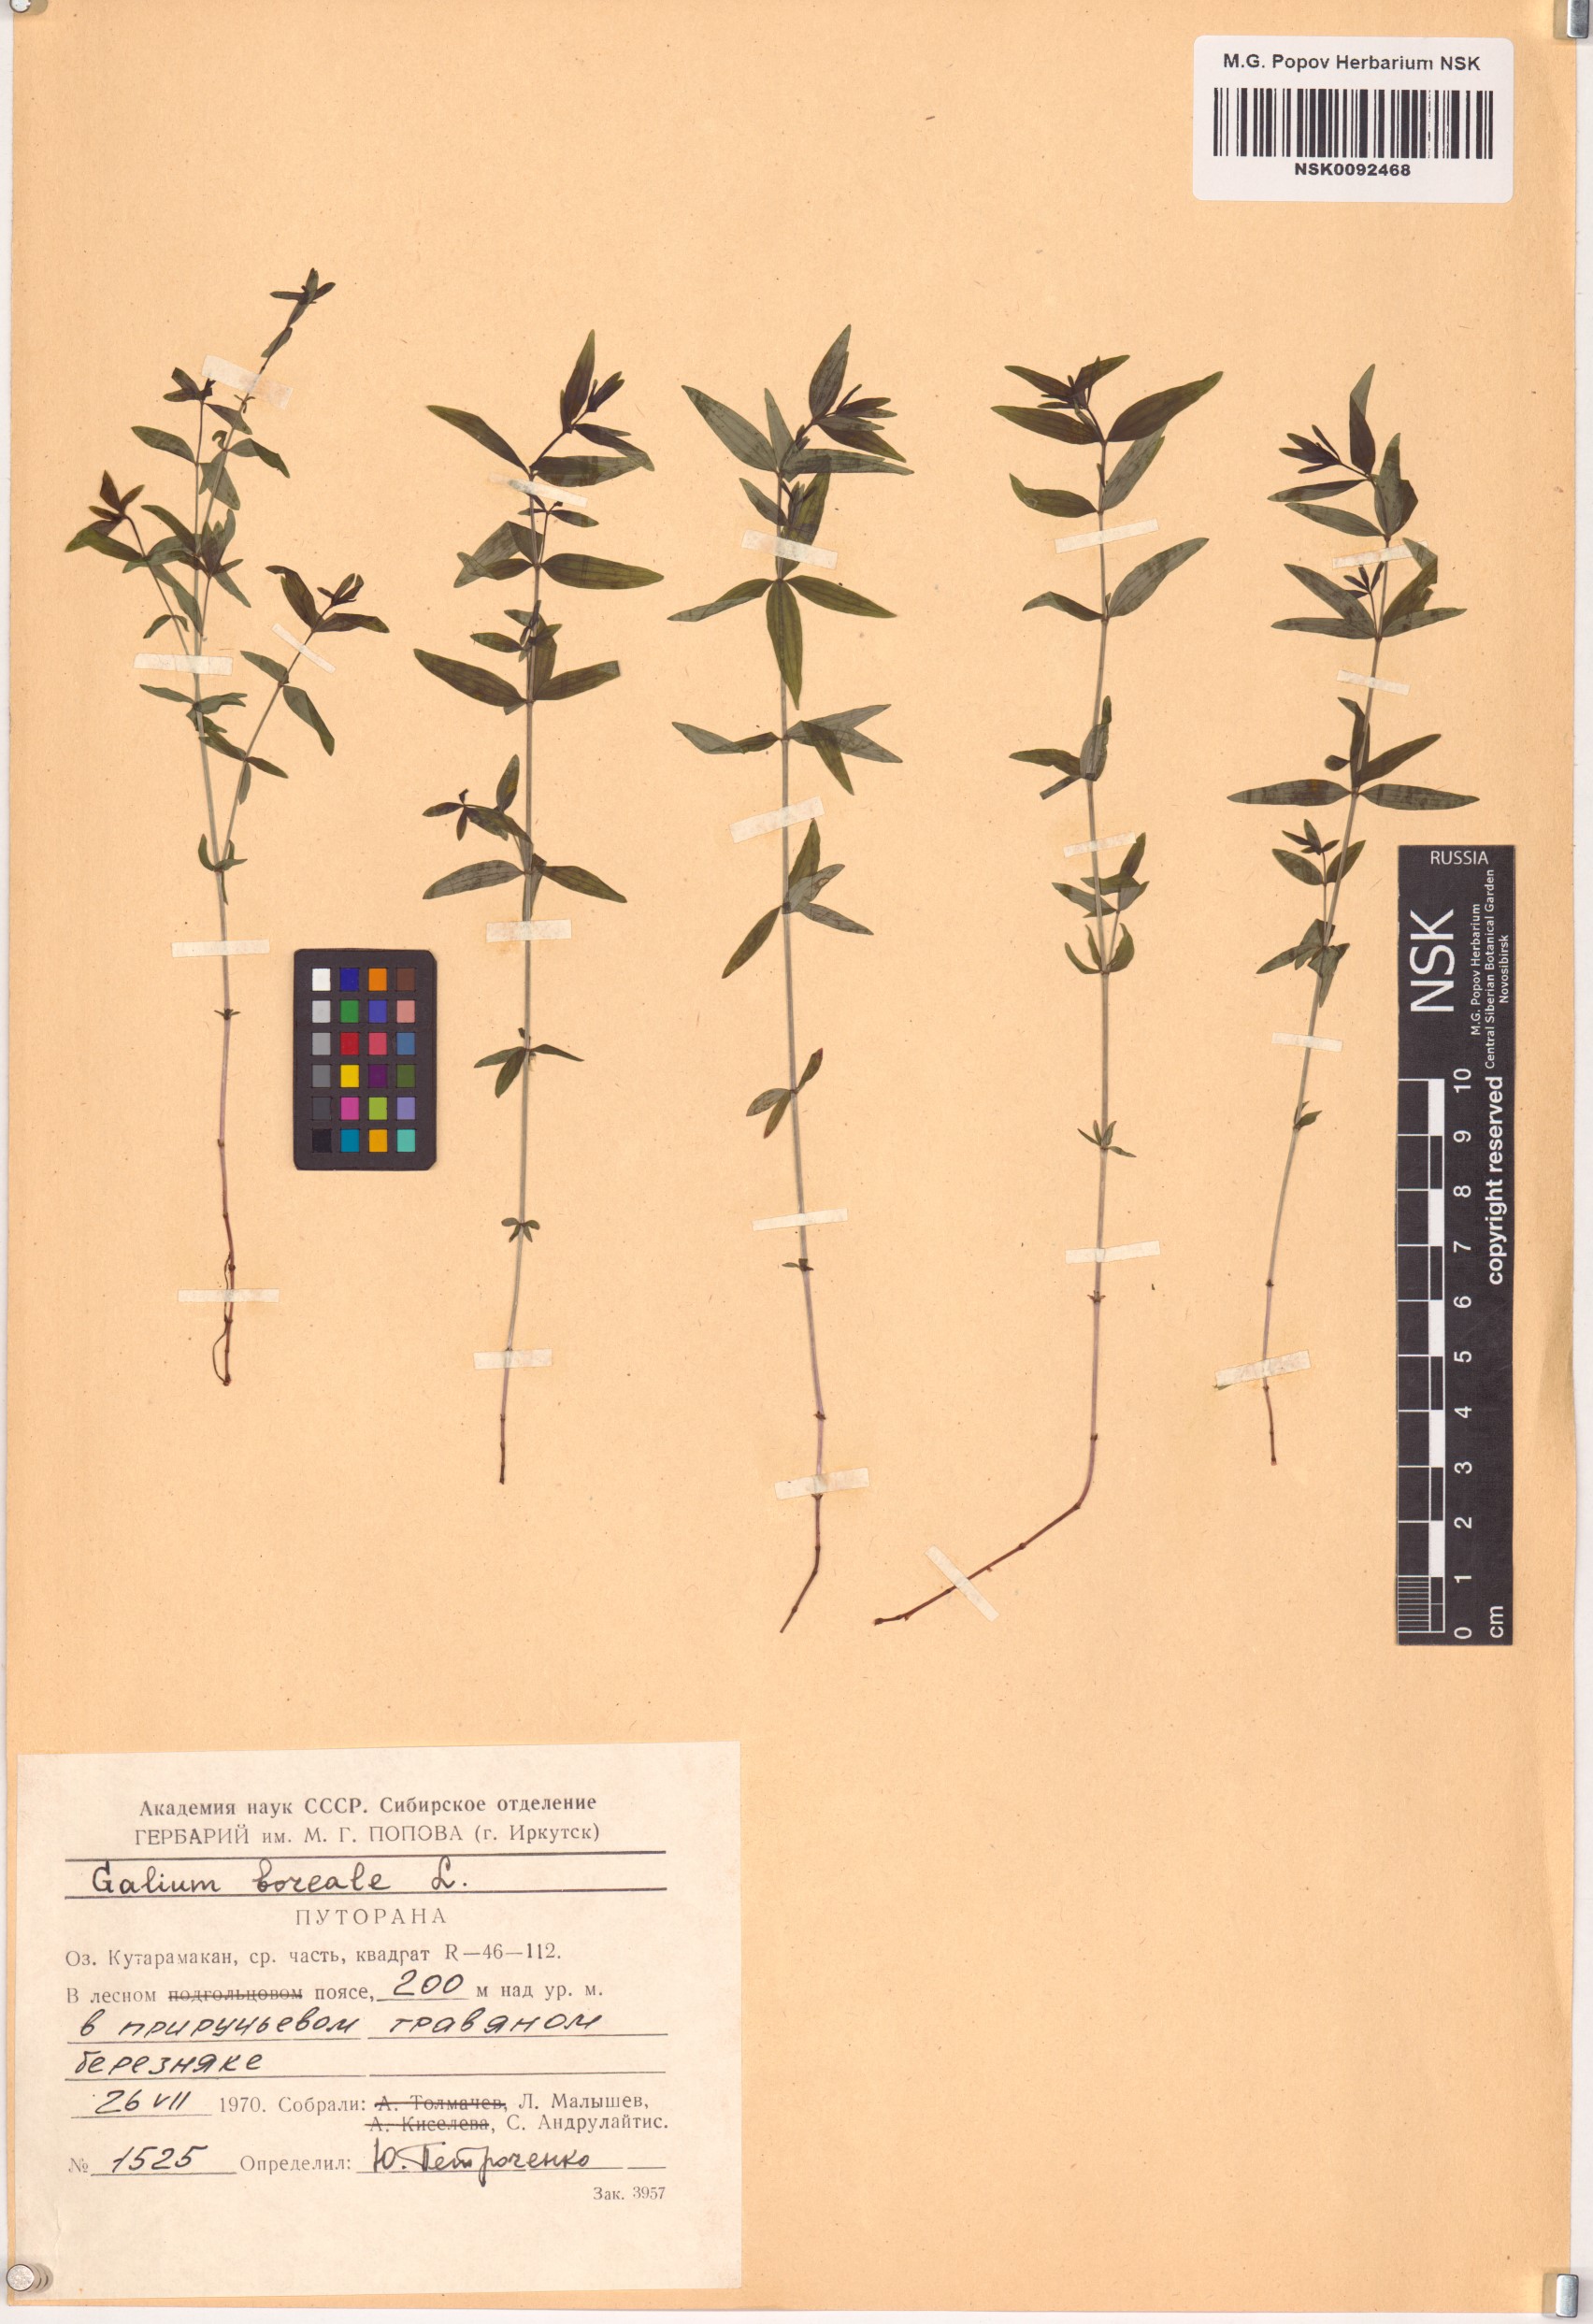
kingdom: Plantae
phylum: Tracheophyta
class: Magnoliopsida
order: Gentianales
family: Rubiaceae
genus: Galium
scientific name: Galium boreale
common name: Northern bedstraw
